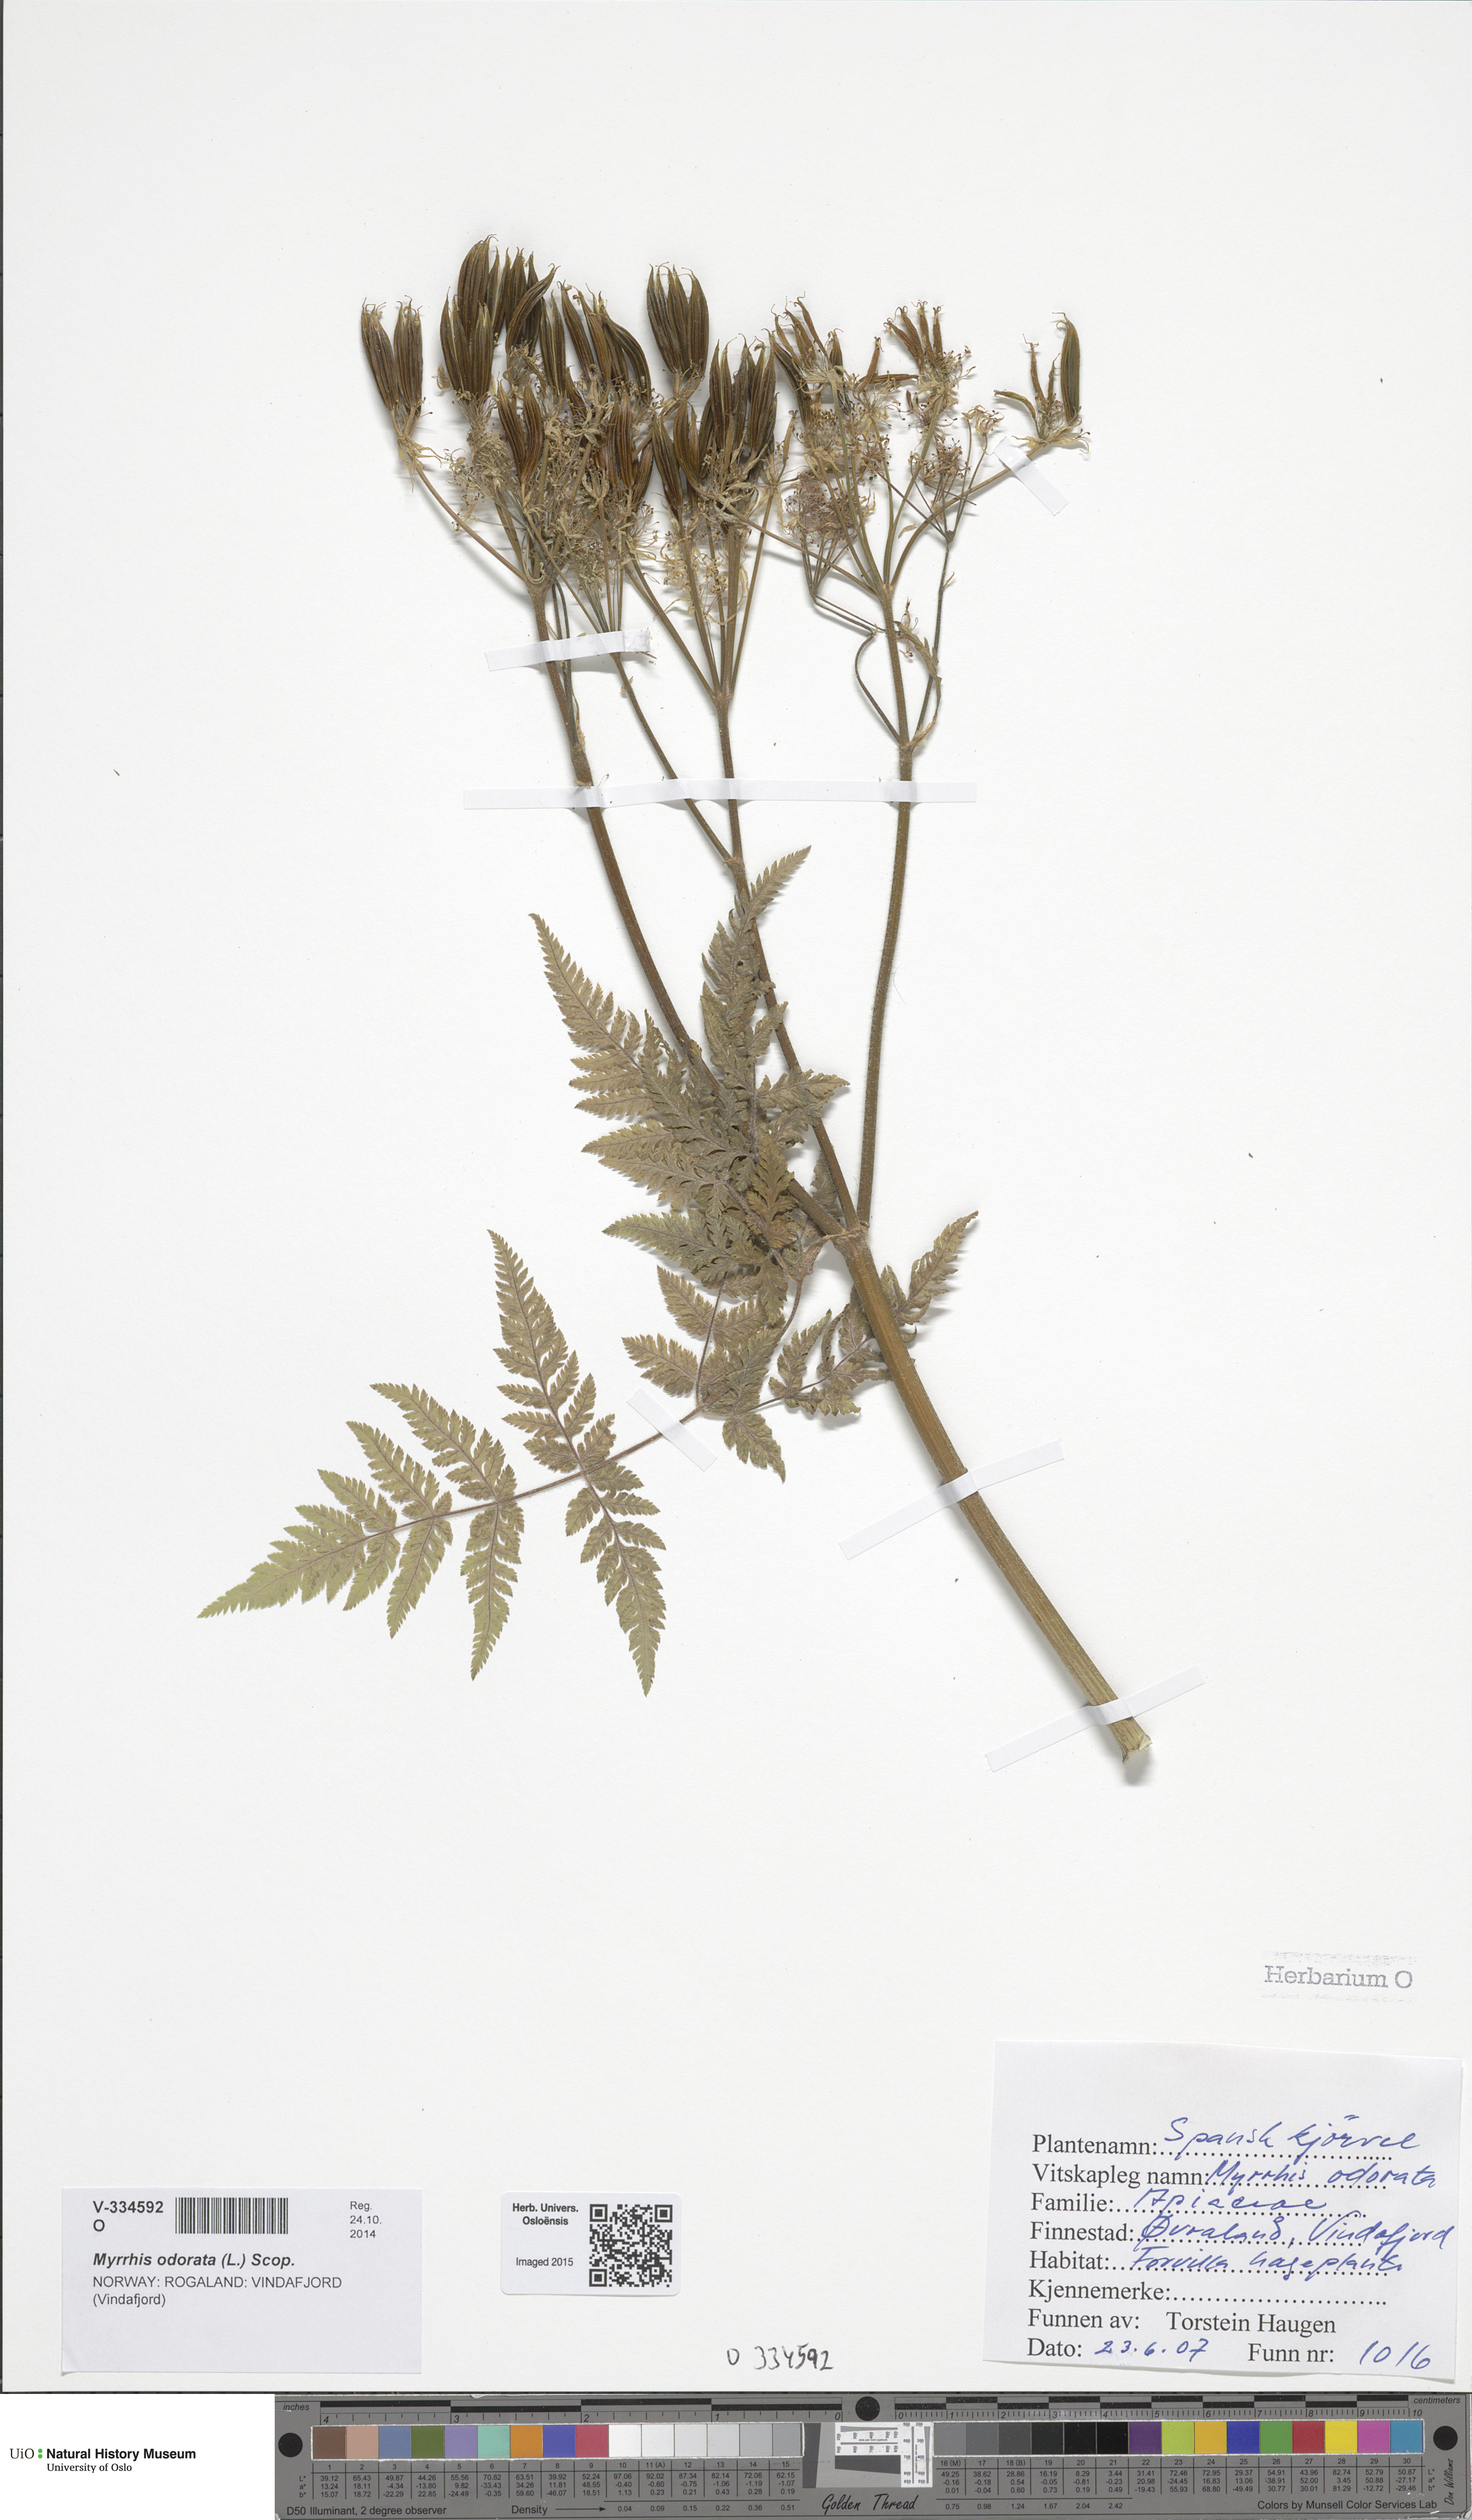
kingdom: Plantae
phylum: Tracheophyta
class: Magnoliopsida
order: Apiales
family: Apiaceae
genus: Myrrhis
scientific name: Myrrhis odorata
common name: Sweet cicely
